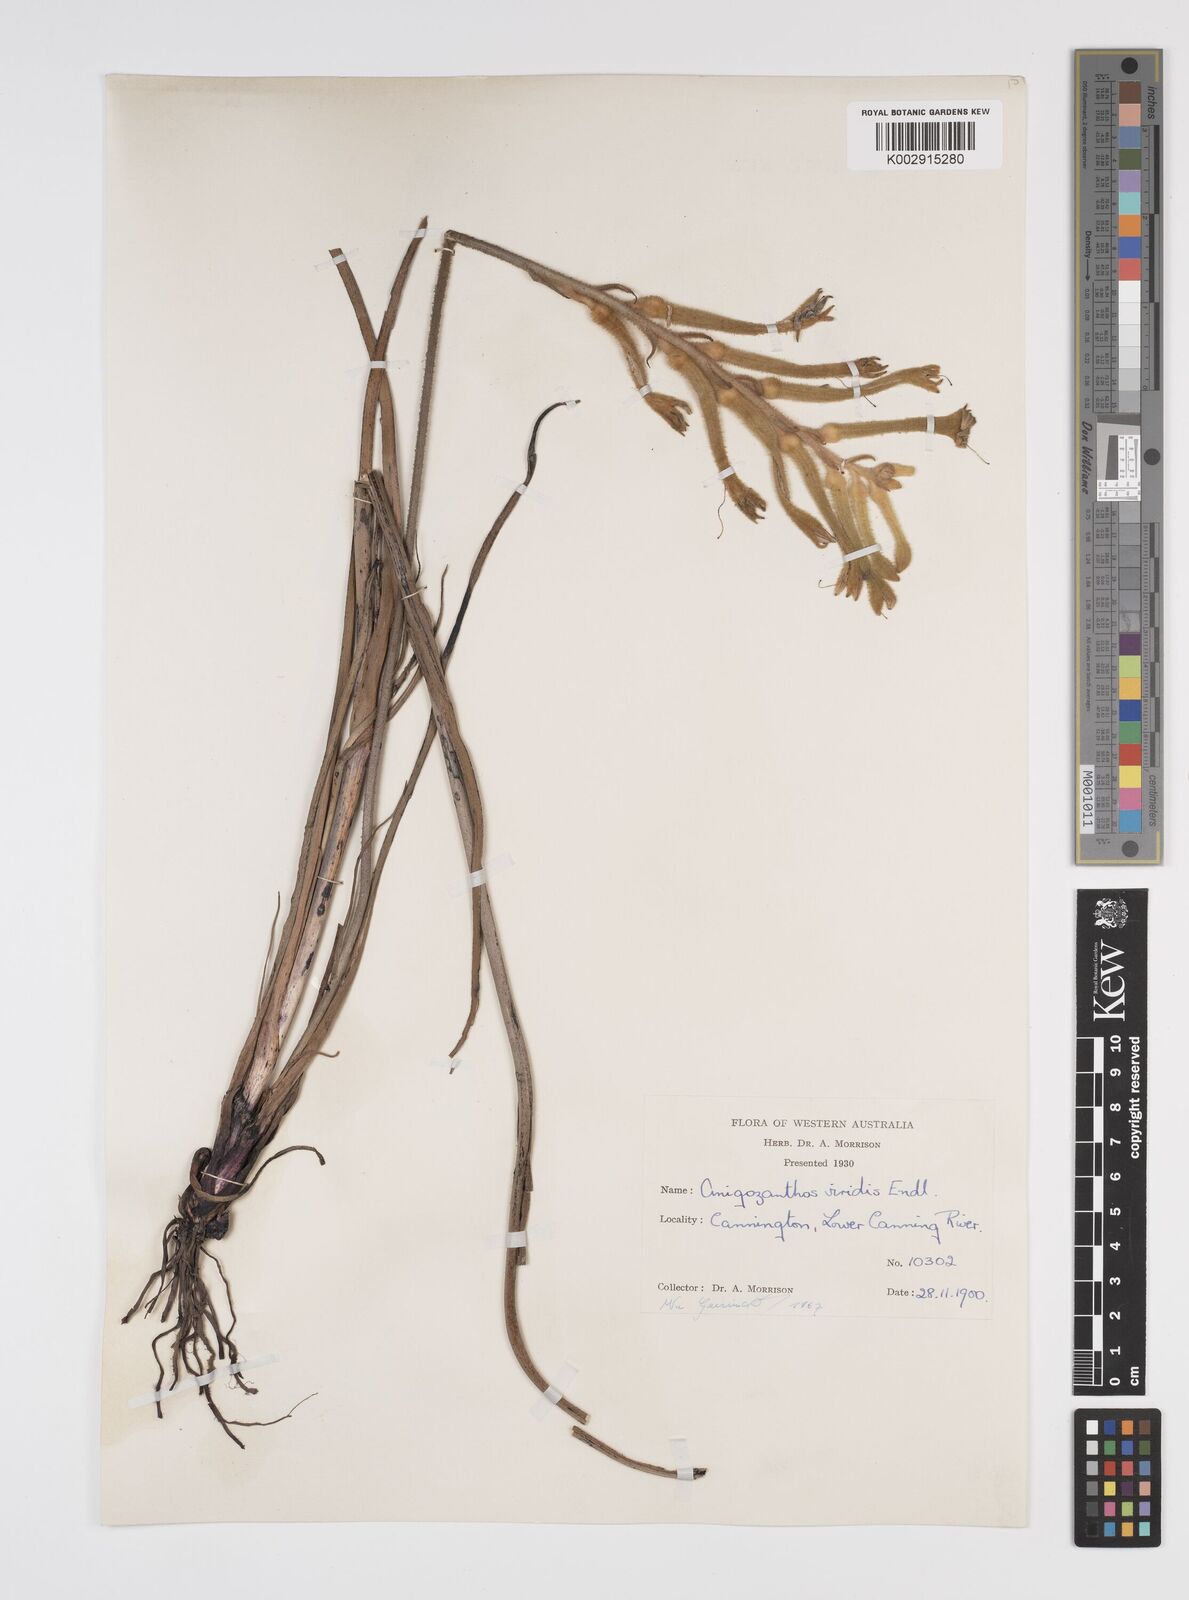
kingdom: Plantae
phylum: Tracheophyta
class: Liliopsida
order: Commelinales
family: Haemodoraceae
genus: Anigozanthos
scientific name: Anigozanthos viridis
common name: Green kangaroo-paw
